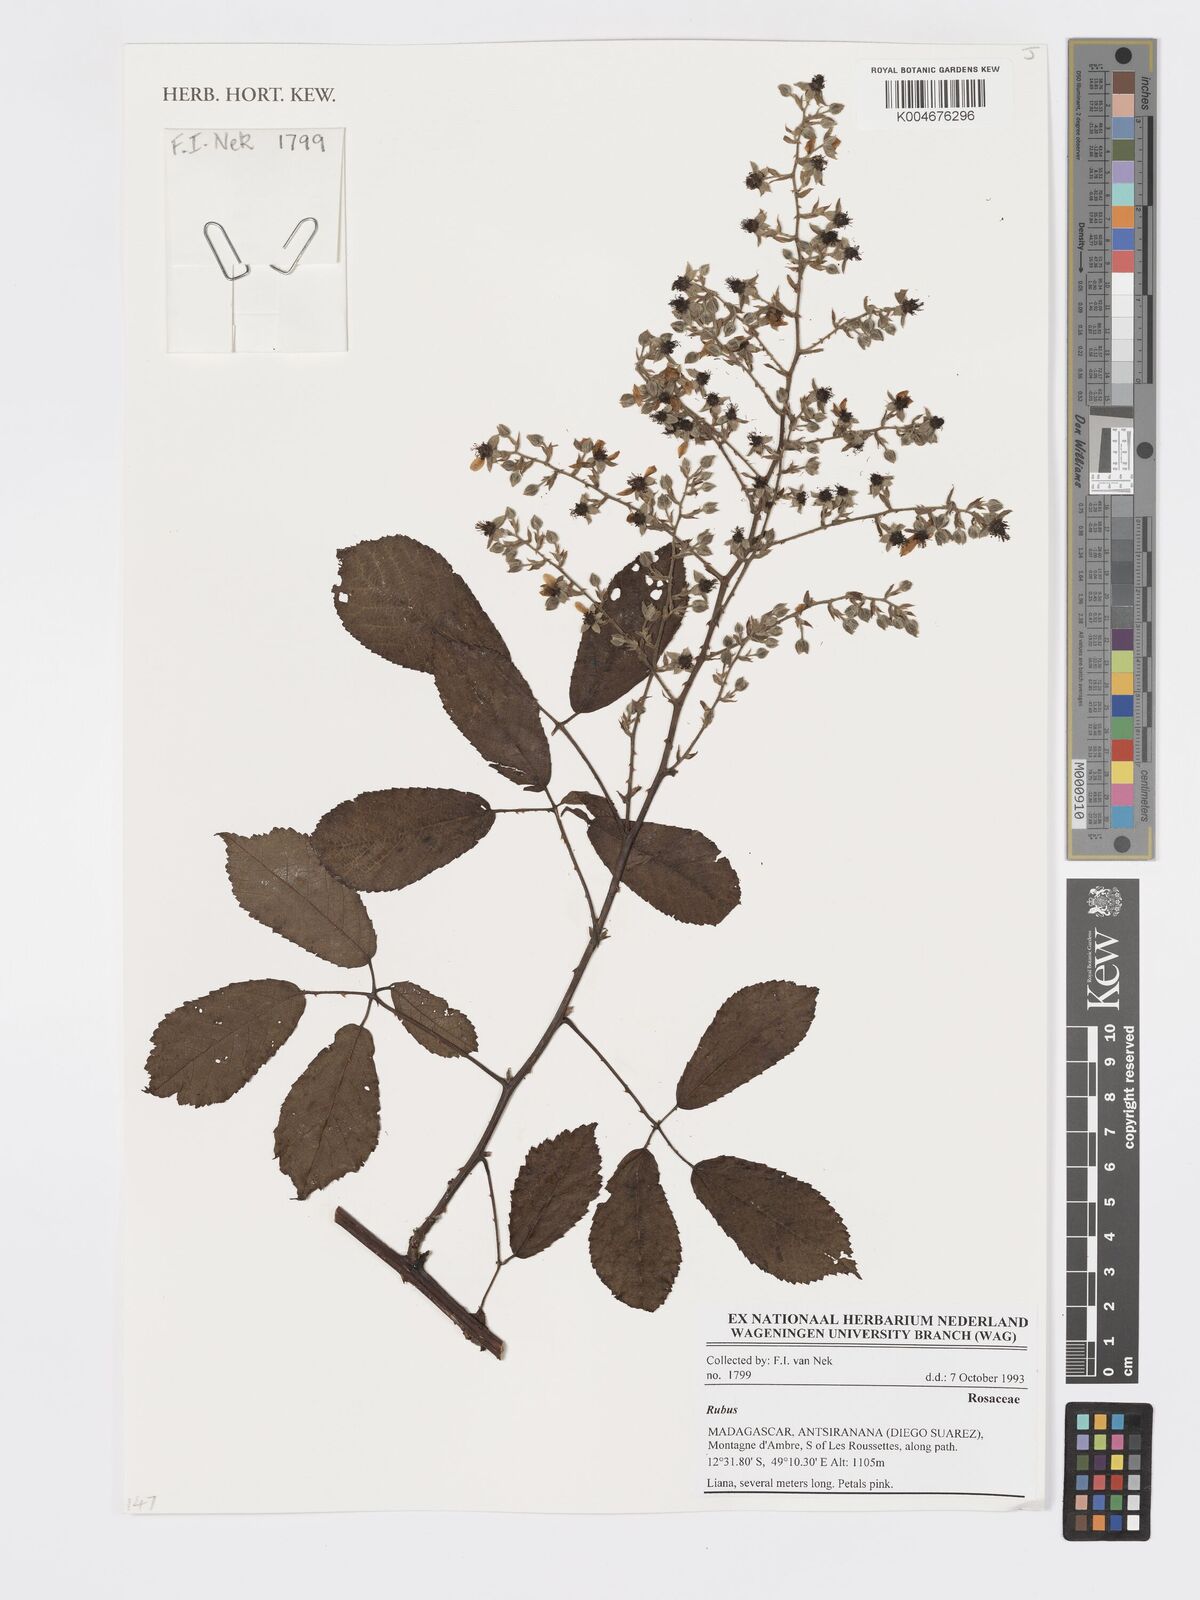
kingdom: Plantae
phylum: Tracheophyta
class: Magnoliopsida
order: Rosales
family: Rosaceae
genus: Rubus
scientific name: Rubus
